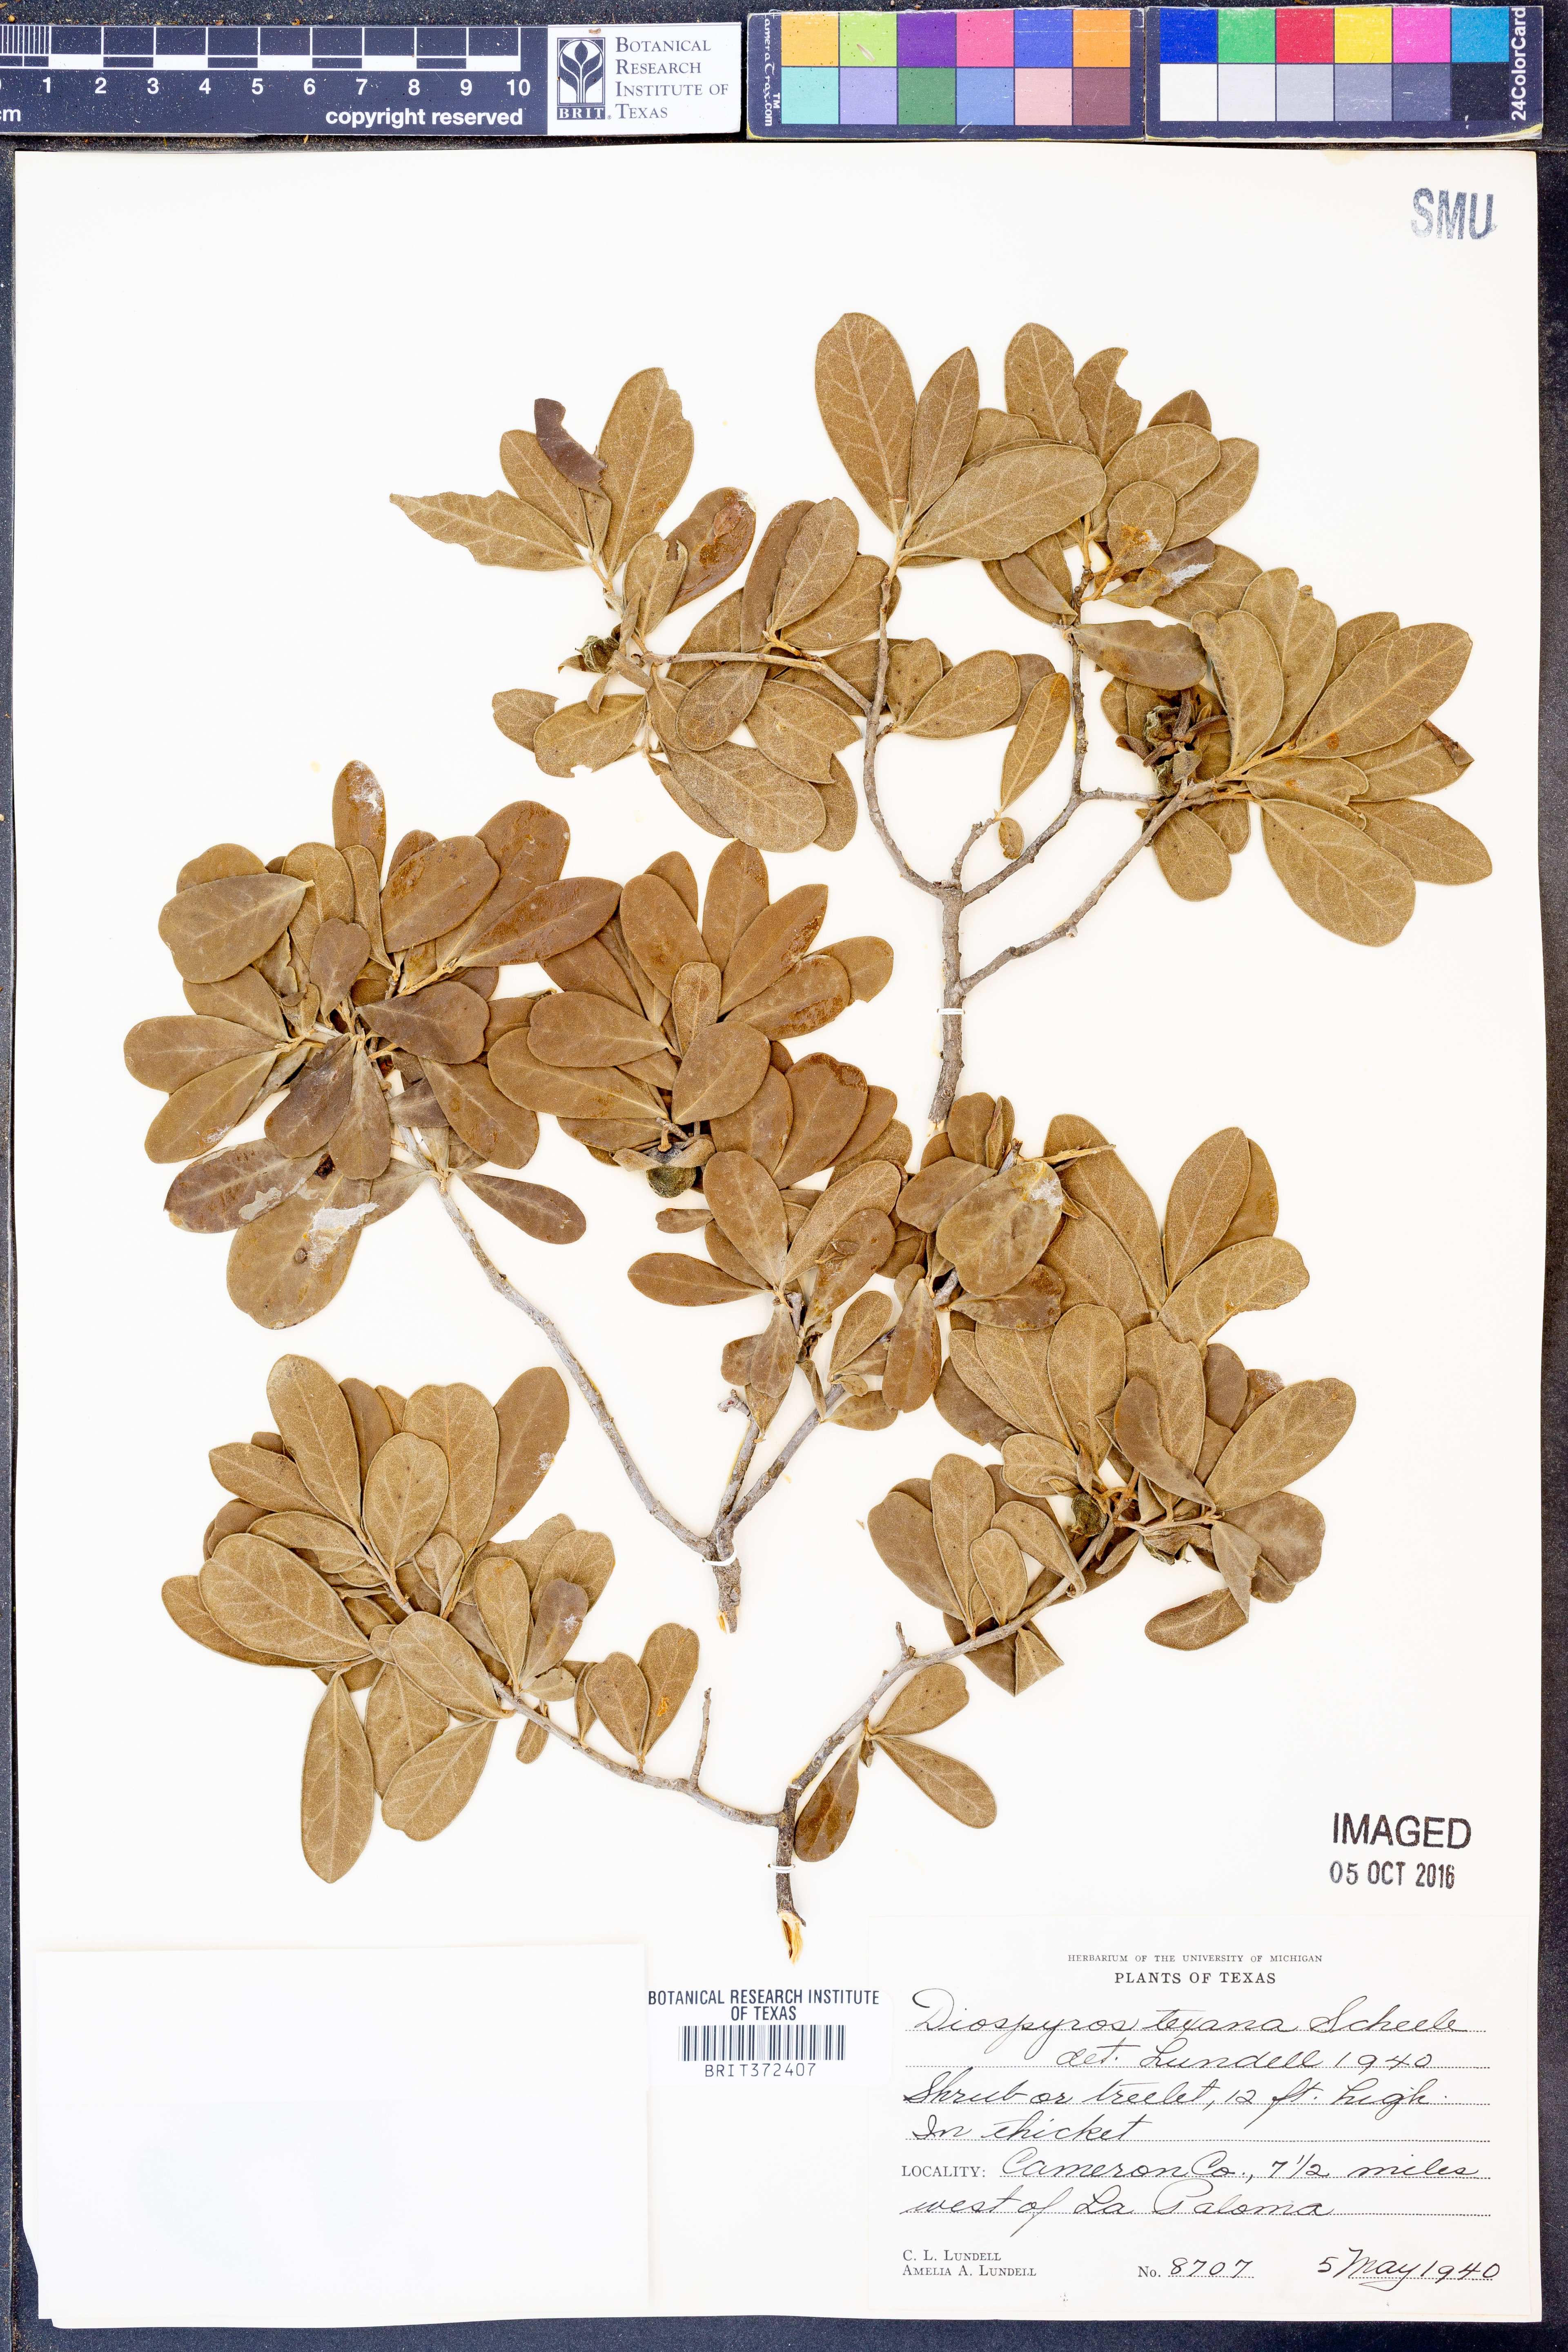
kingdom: Plantae
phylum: Tracheophyta
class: Magnoliopsida
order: Ericales
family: Ebenaceae
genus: Diospyros
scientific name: Diospyros texana
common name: Texas persimmon
